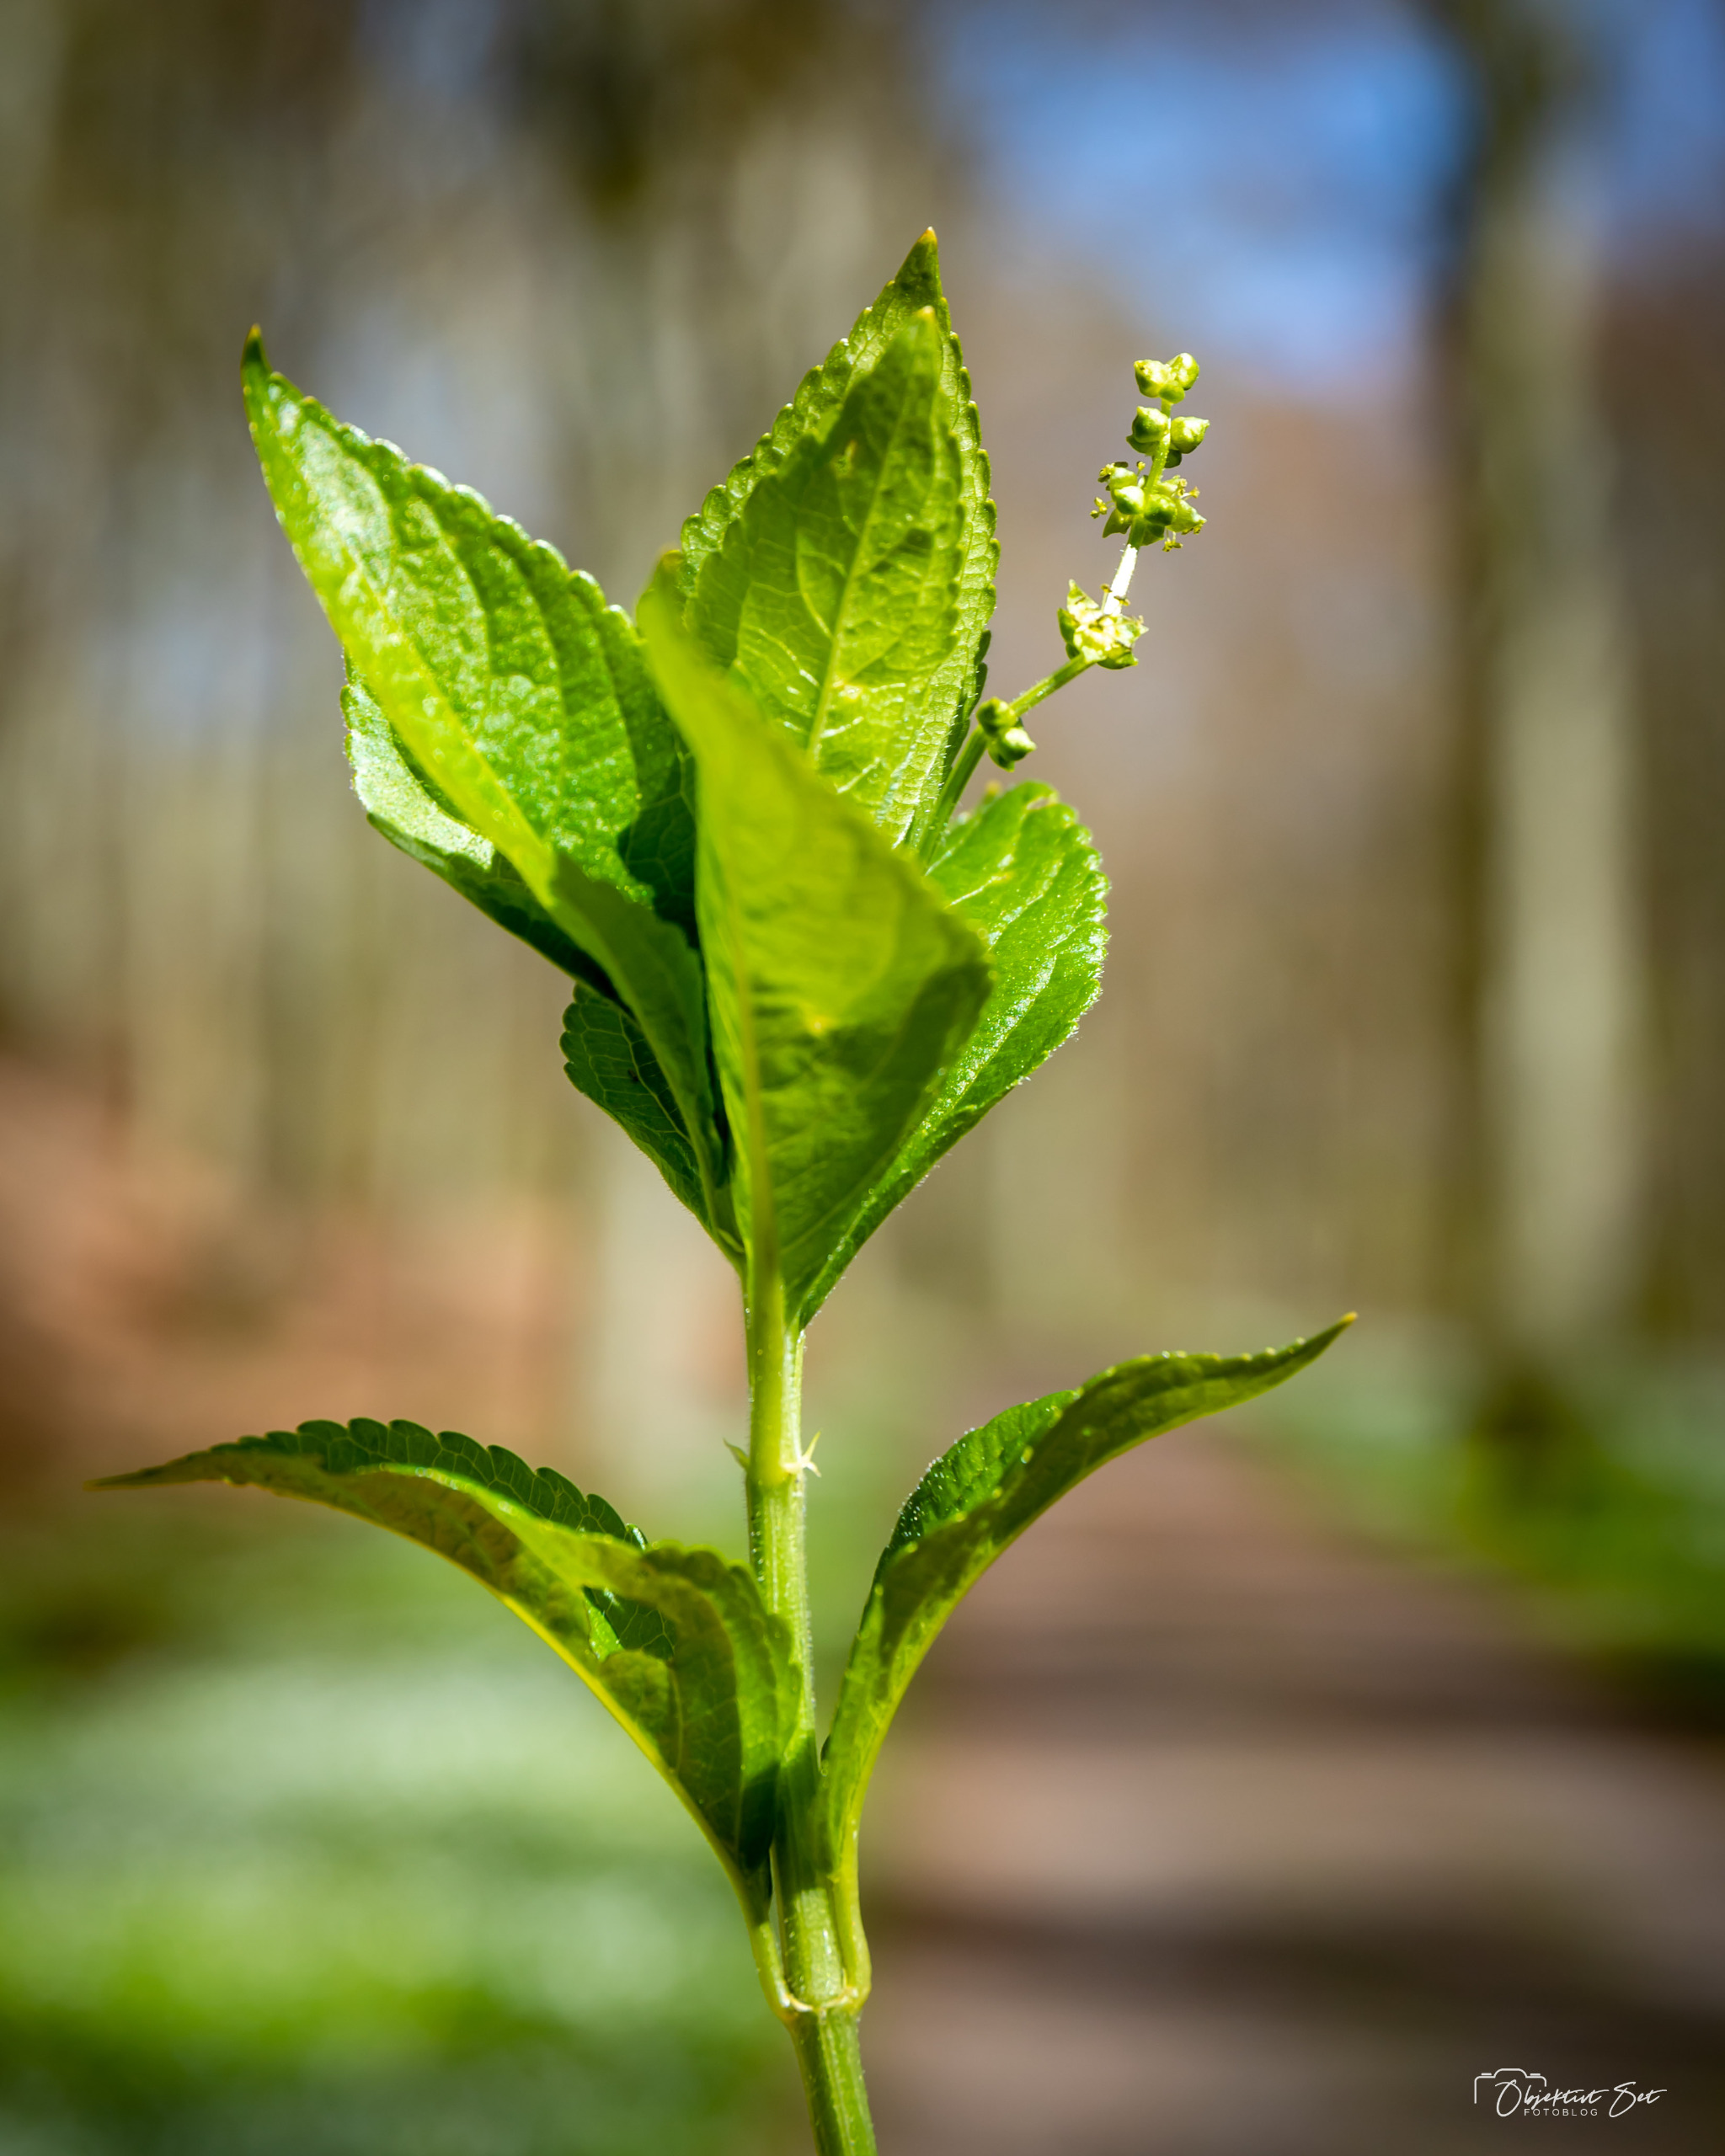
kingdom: Plantae
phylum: Tracheophyta
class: Magnoliopsida
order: Malpighiales
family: Euphorbiaceae
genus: Mercurialis
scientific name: Mercurialis perennis
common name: Almindelig bingelurt
